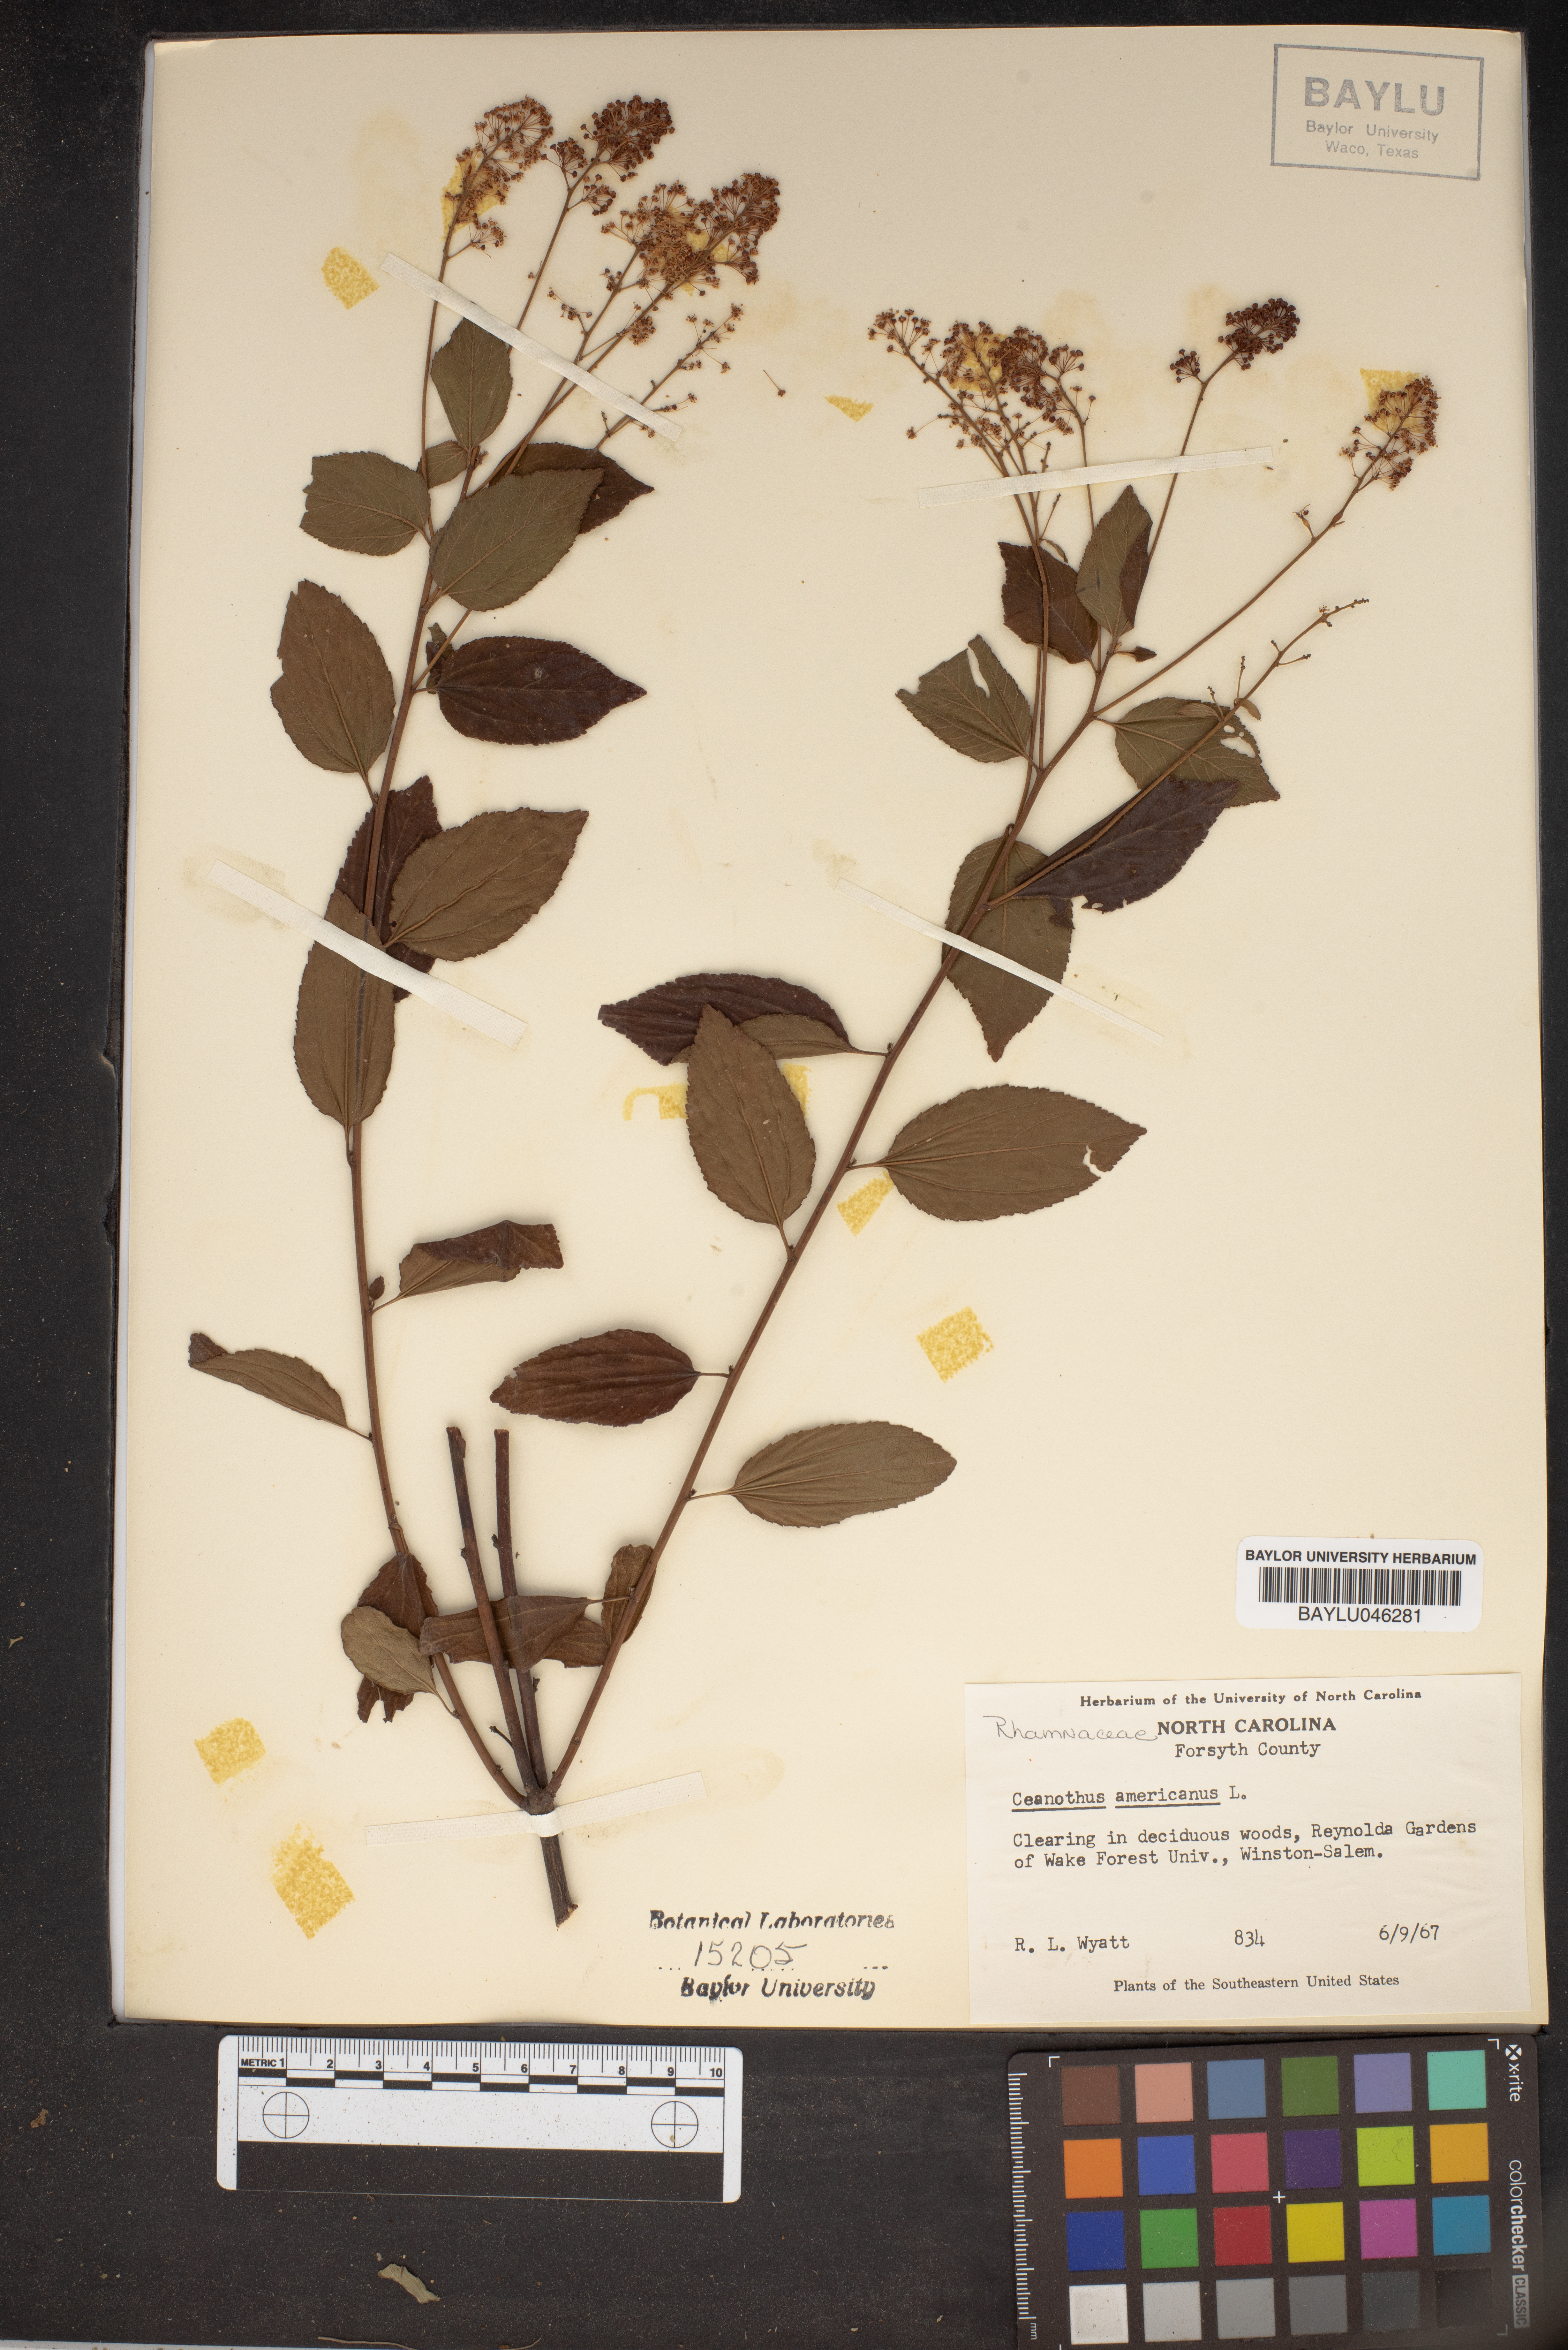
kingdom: Plantae
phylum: Tracheophyta
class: Magnoliopsida
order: Rosales
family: Rhamnaceae
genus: Ceanothus
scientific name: Ceanothus americanus
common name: Redroot
